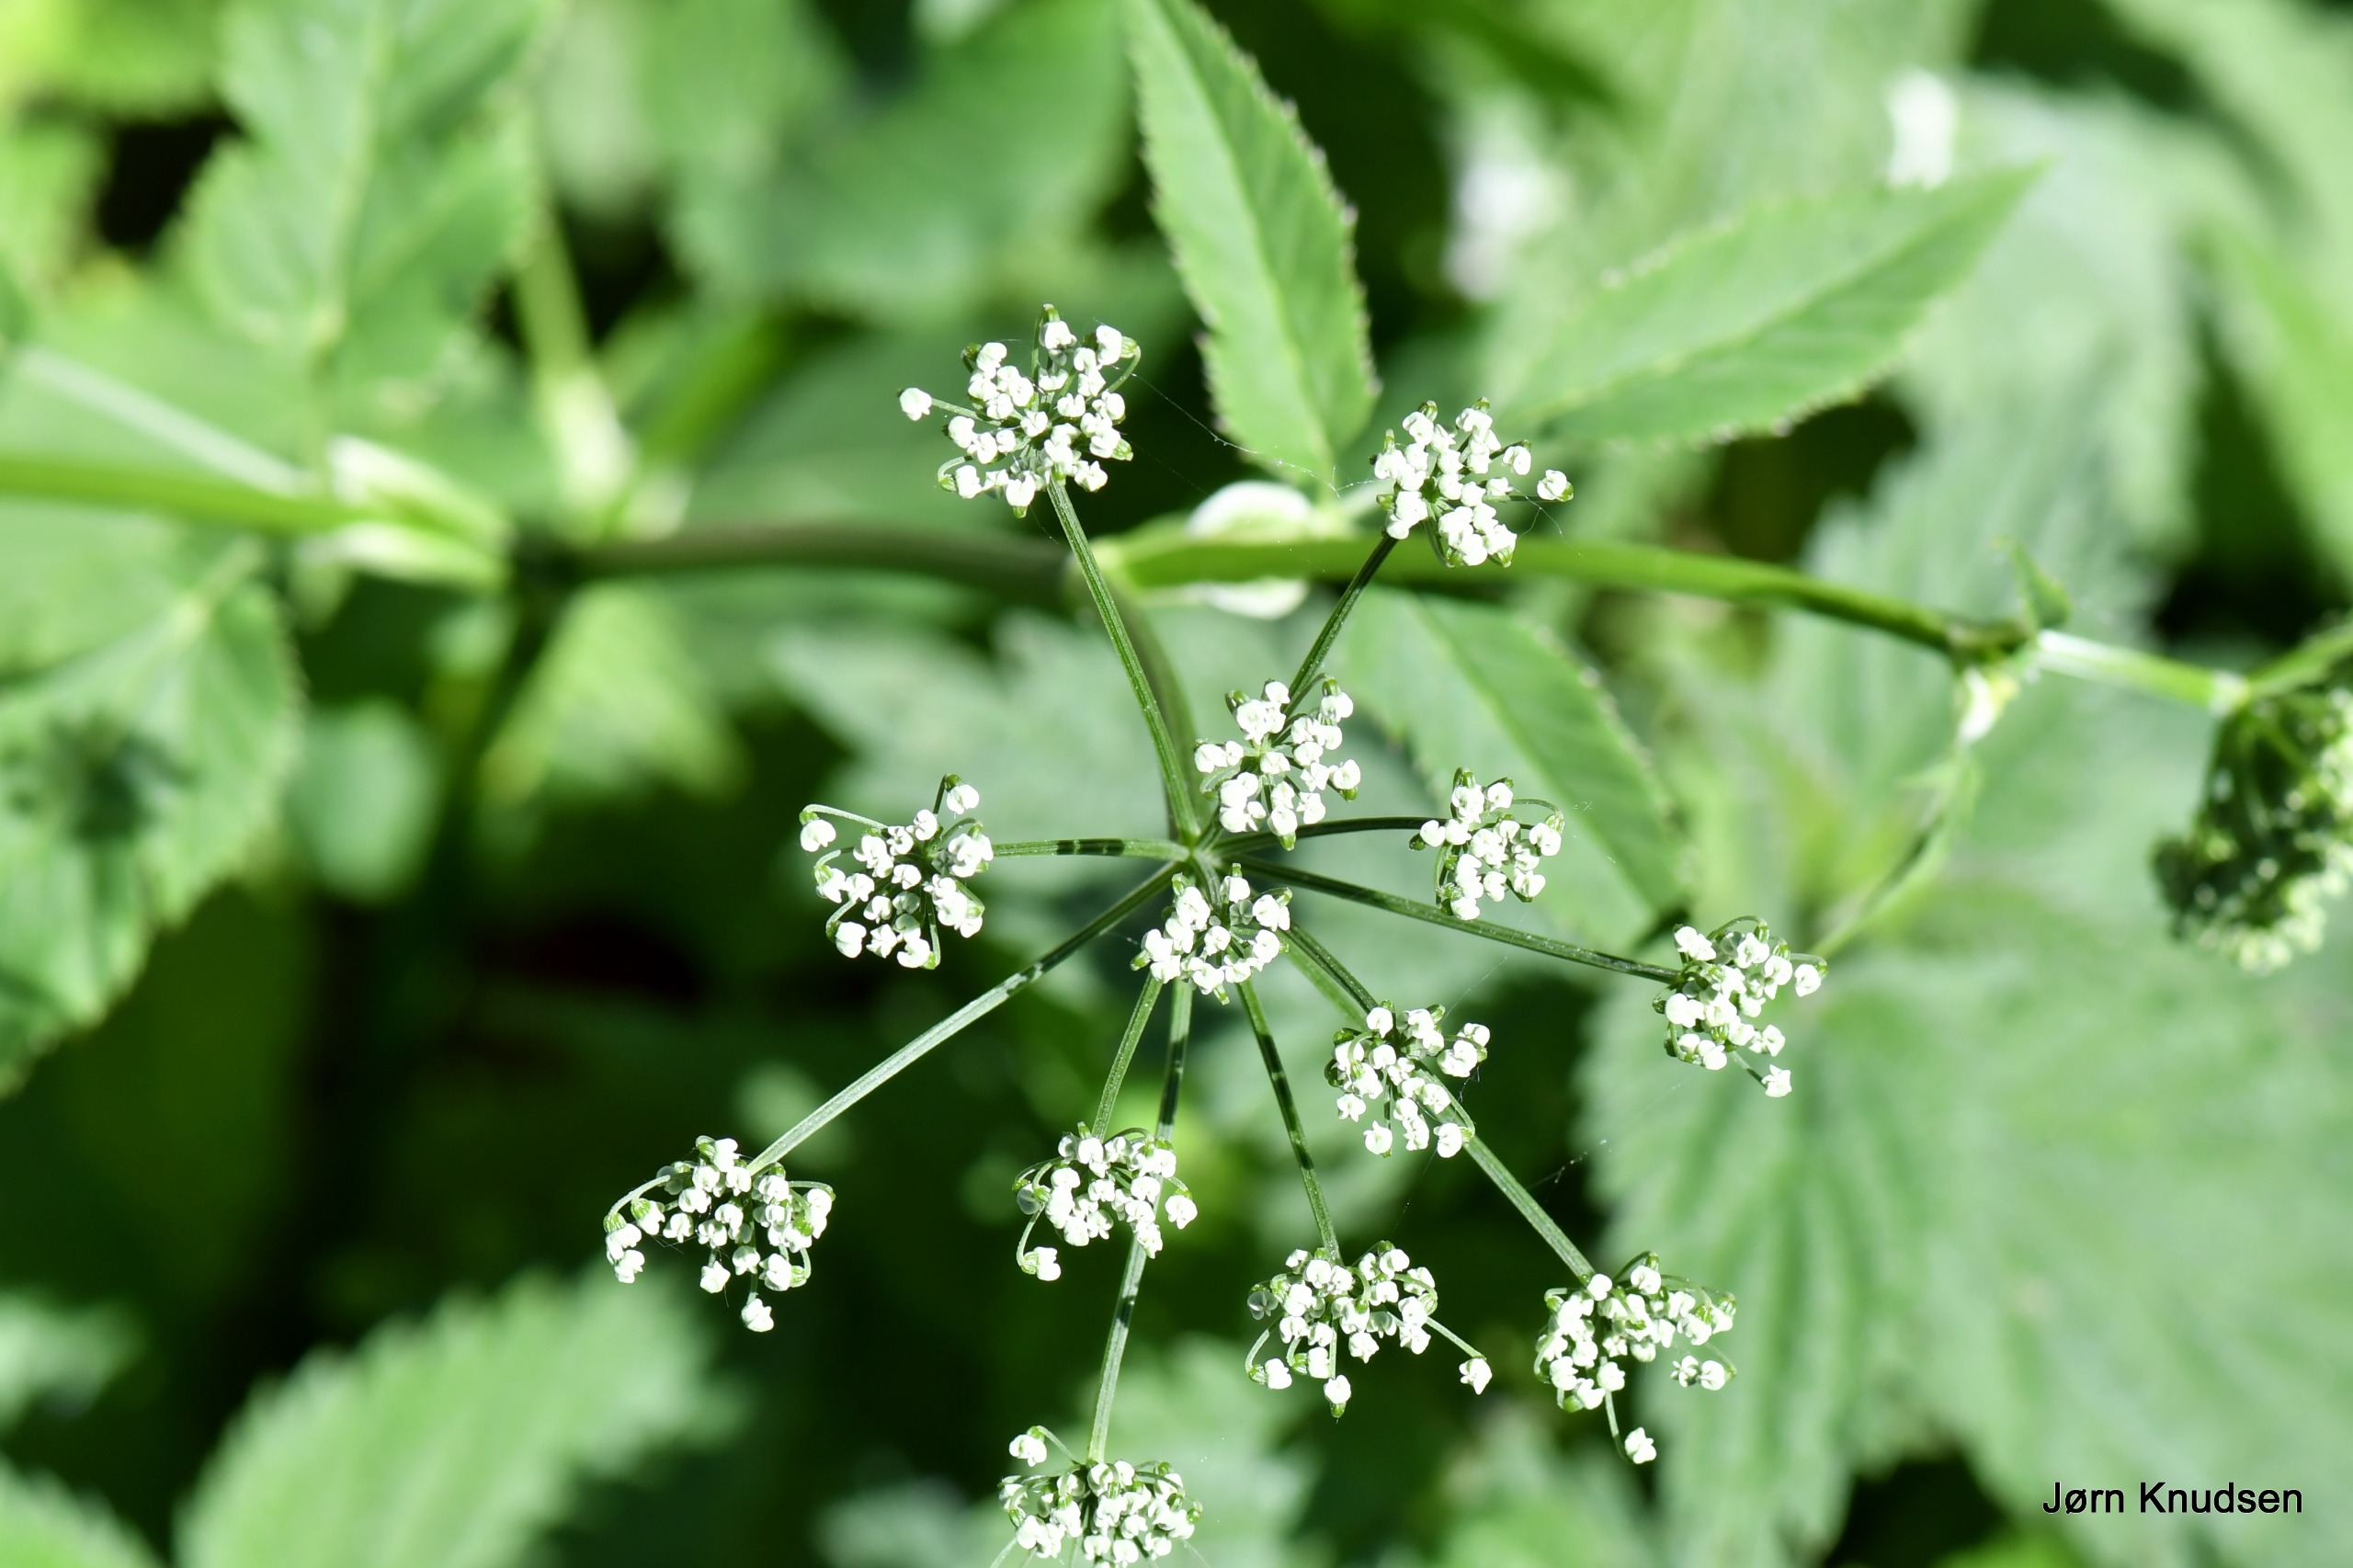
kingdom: Plantae
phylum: Tracheophyta
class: Magnoliopsida
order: Apiales
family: Apiaceae
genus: Aegopodium
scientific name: Aegopodium podagraria
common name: Skvalderkål
